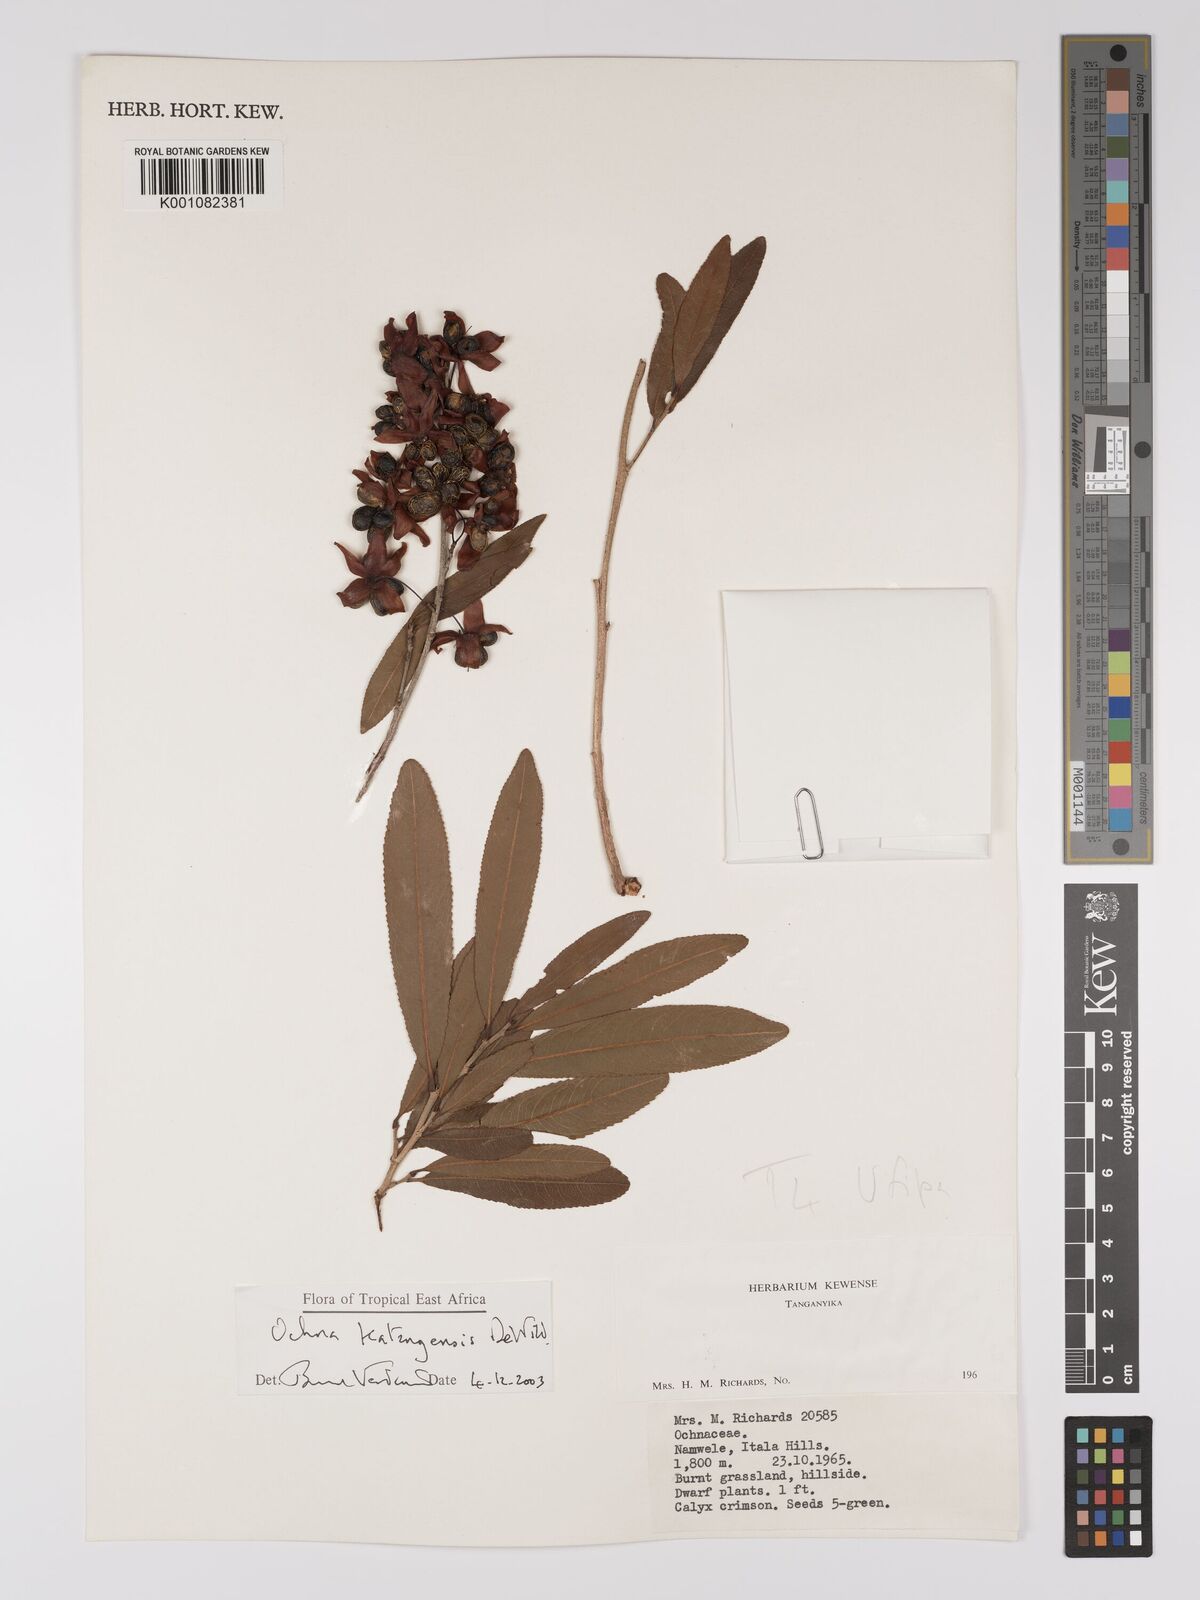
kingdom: Plantae
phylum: Tracheophyta
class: Magnoliopsida
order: Malpighiales
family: Ochnaceae
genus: Ochna
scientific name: Ochna katangensis
